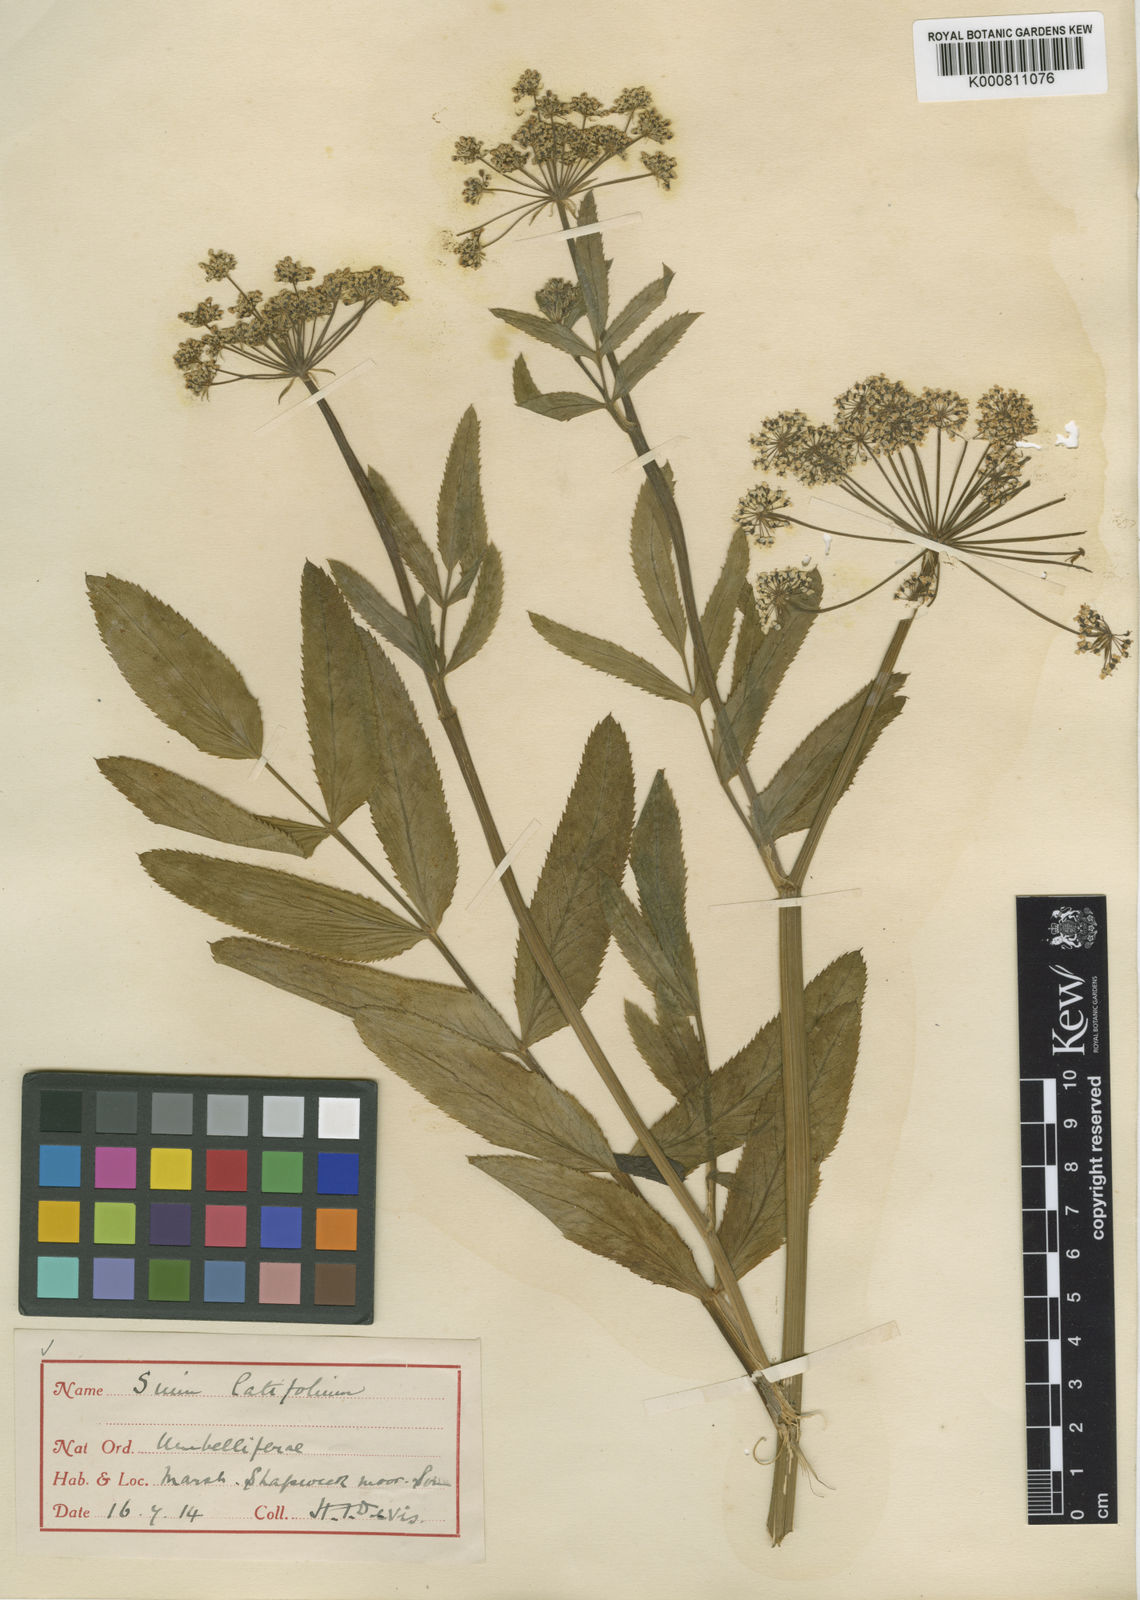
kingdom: Plantae
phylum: Tracheophyta
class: Magnoliopsida
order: Apiales
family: Apiaceae
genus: Sium
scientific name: Sium latifolium
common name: Greater water-parsnip
